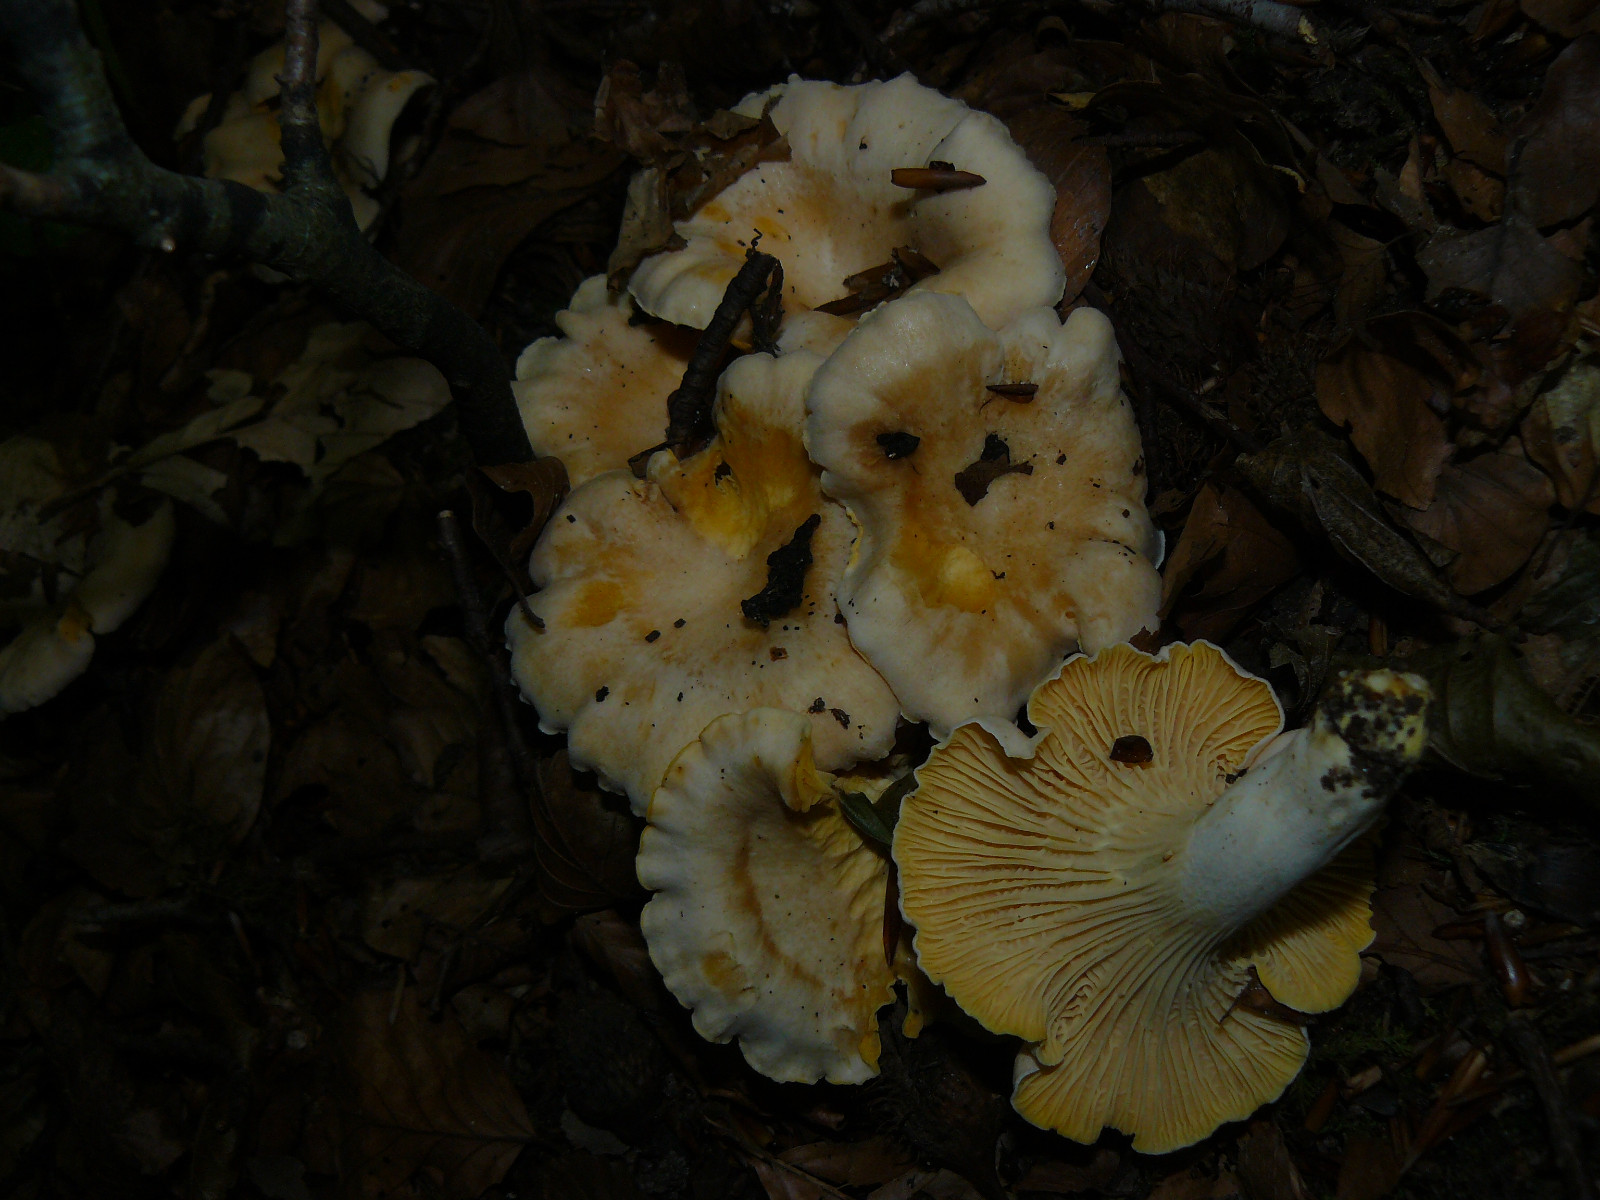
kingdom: Fungi
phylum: Basidiomycota
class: Agaricomycetes
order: Cantharellales
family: Hydnaceae
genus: Cantharellus
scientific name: Cantharellus pallens
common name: bleg kantarel
